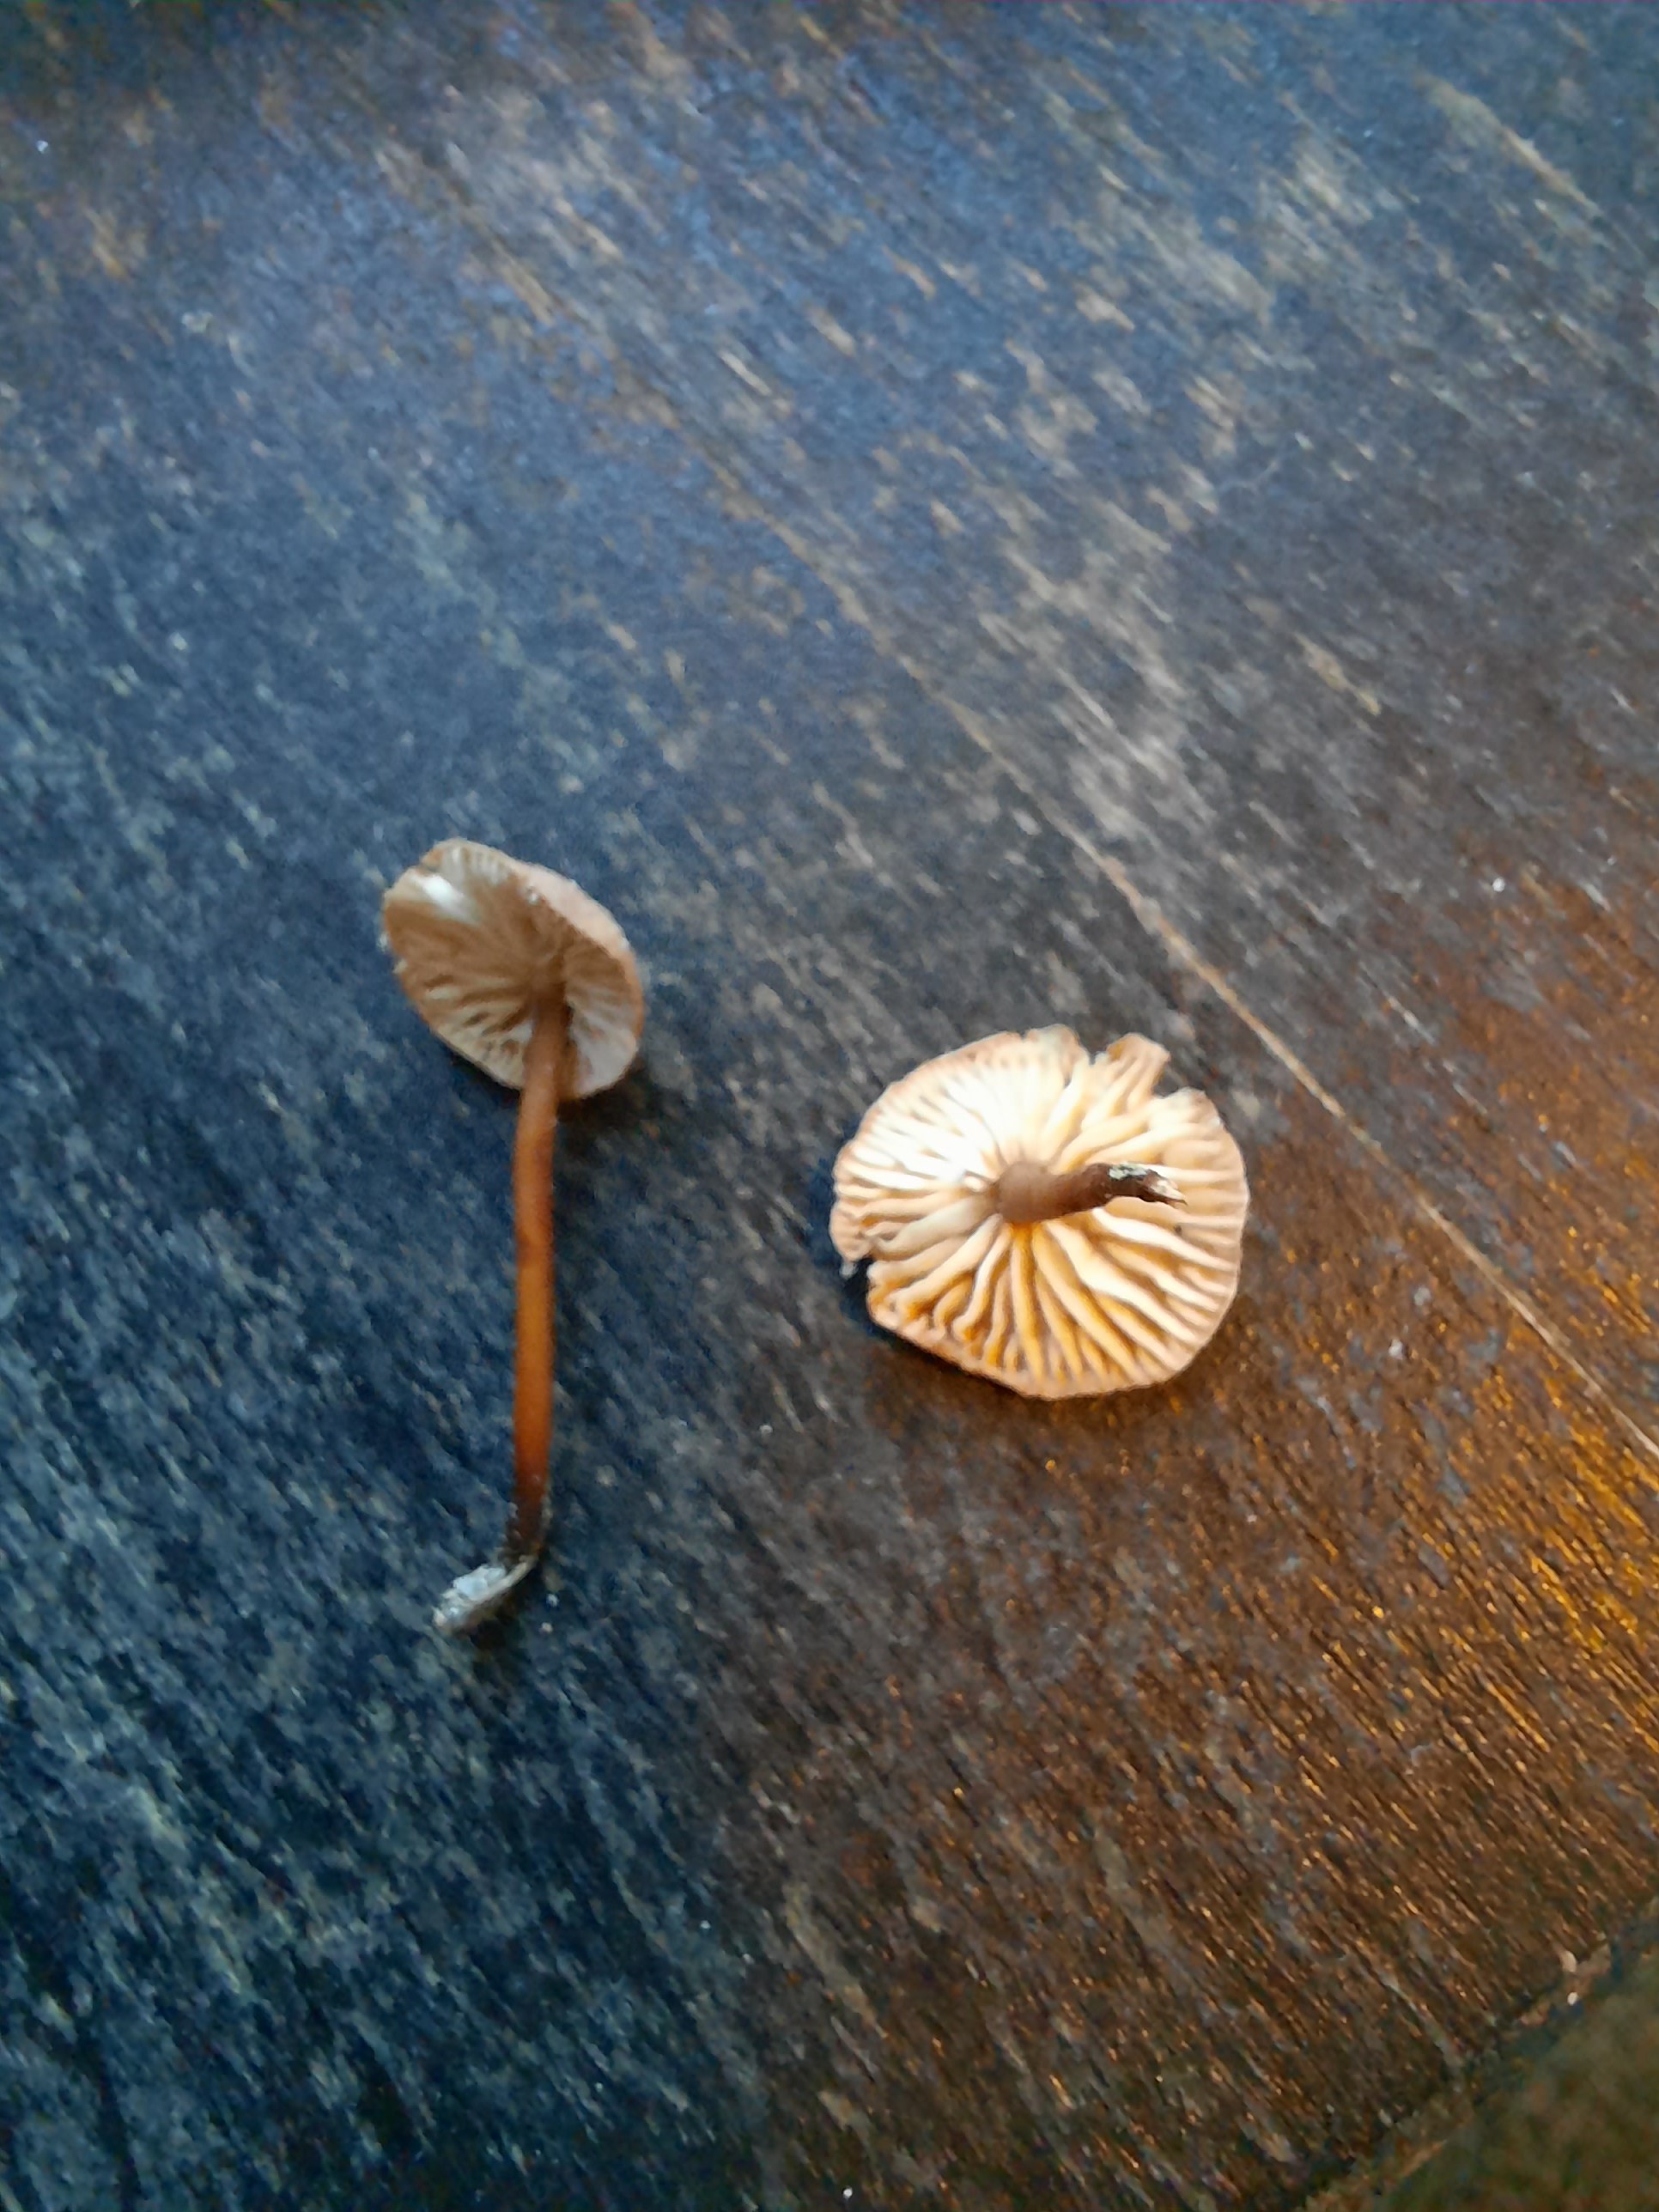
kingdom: Fungi
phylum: Basidiomycota
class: Agaricomycetes
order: Agaricales
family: Omphalotaceae
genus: Mycetinis
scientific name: Mycetinis scorodonius
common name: lille løghat
